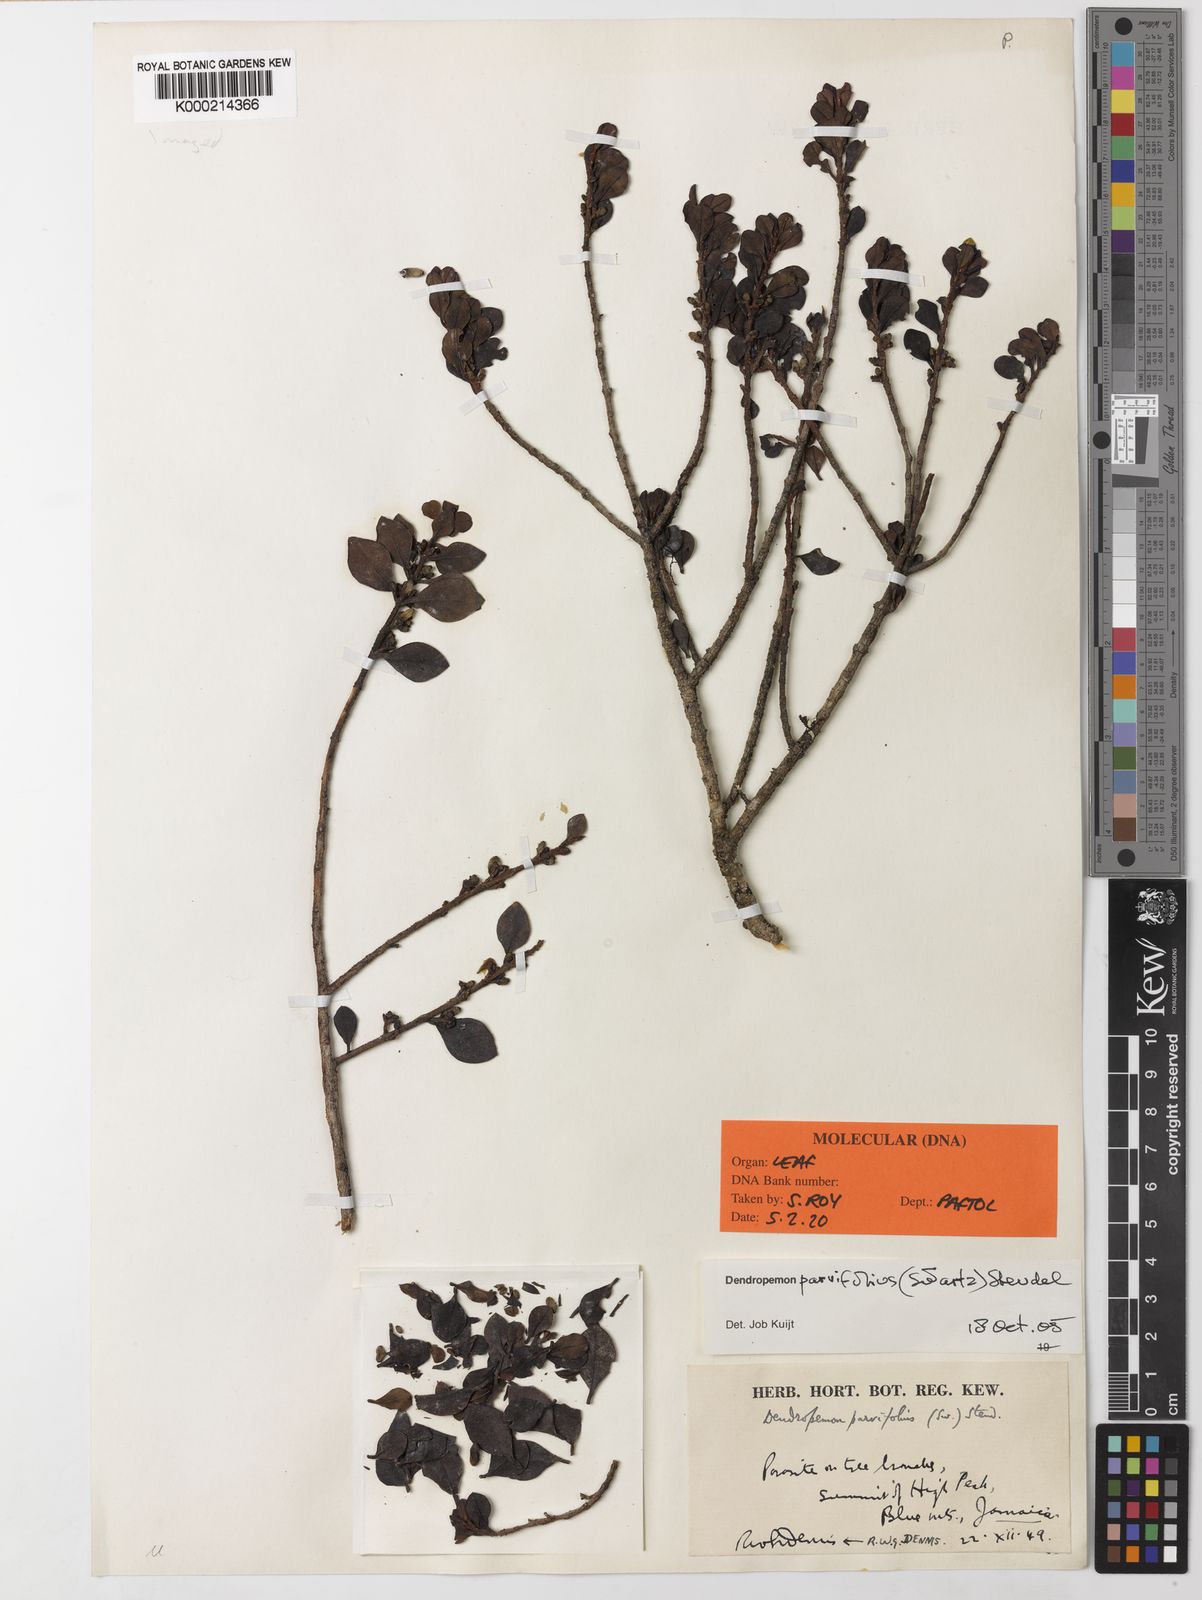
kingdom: Plantae
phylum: Tracheophyta
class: Magnoliopsida
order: Santalales
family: Loranthaceae
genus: Dendropemon
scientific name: Dendropemon parvifolius
